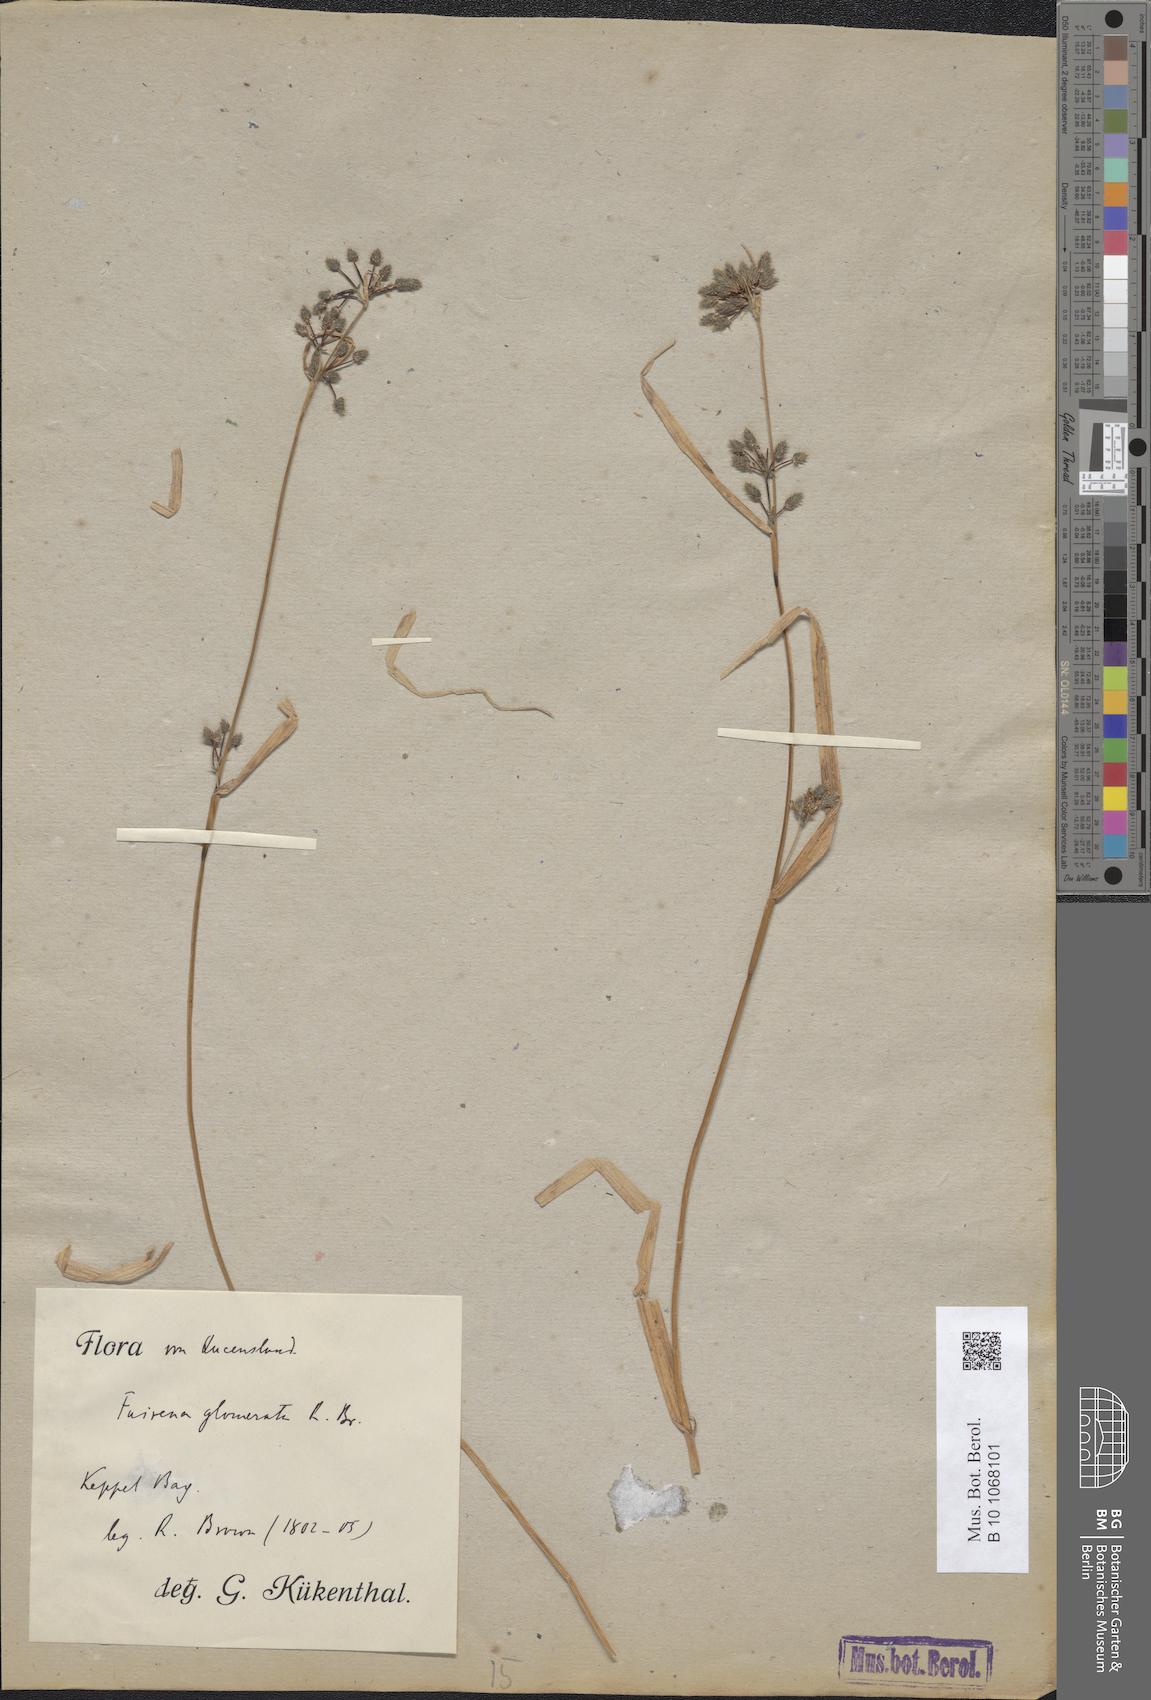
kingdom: Plantae
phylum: Tracheophyta
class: Liliopsida
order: Poales
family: Cyperaceae
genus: Fuirena
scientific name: Fuirena ciliaris
